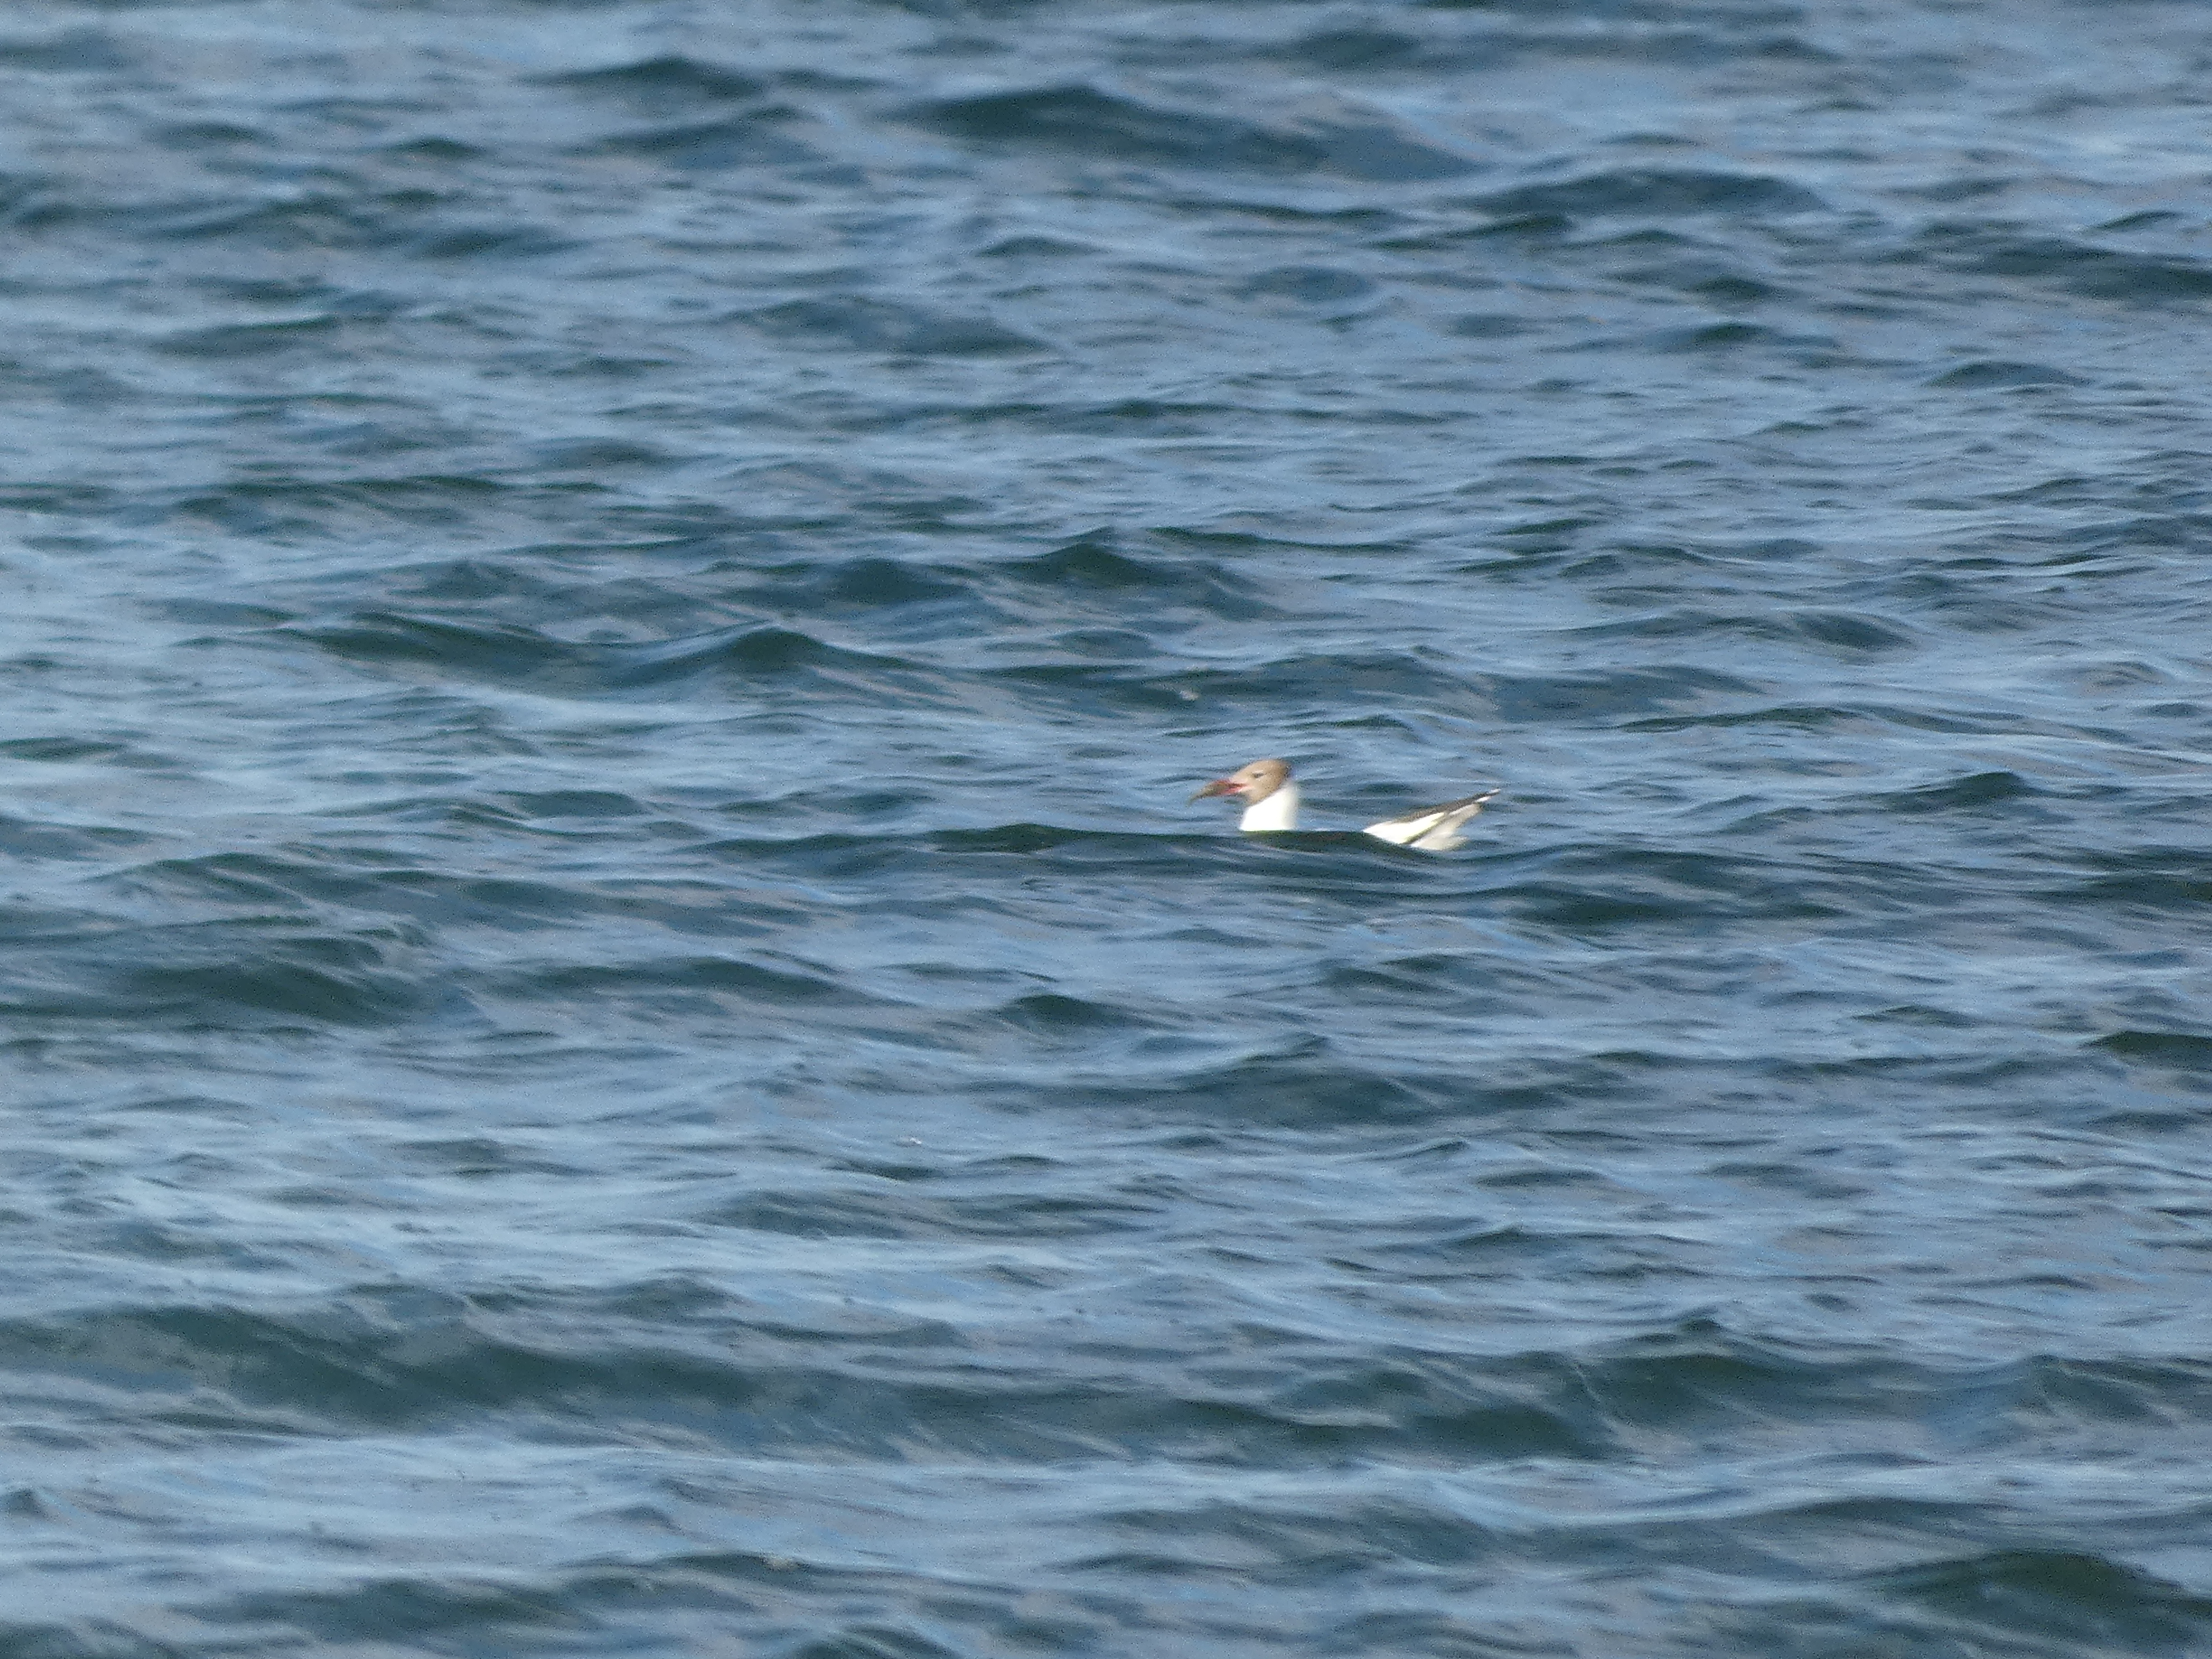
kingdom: Animalia
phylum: Chordata
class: Aves
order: Charadriiformes
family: Laridae
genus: Chroicocephalus
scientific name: Chroicocephalus ridibundus
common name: Hættemåge
